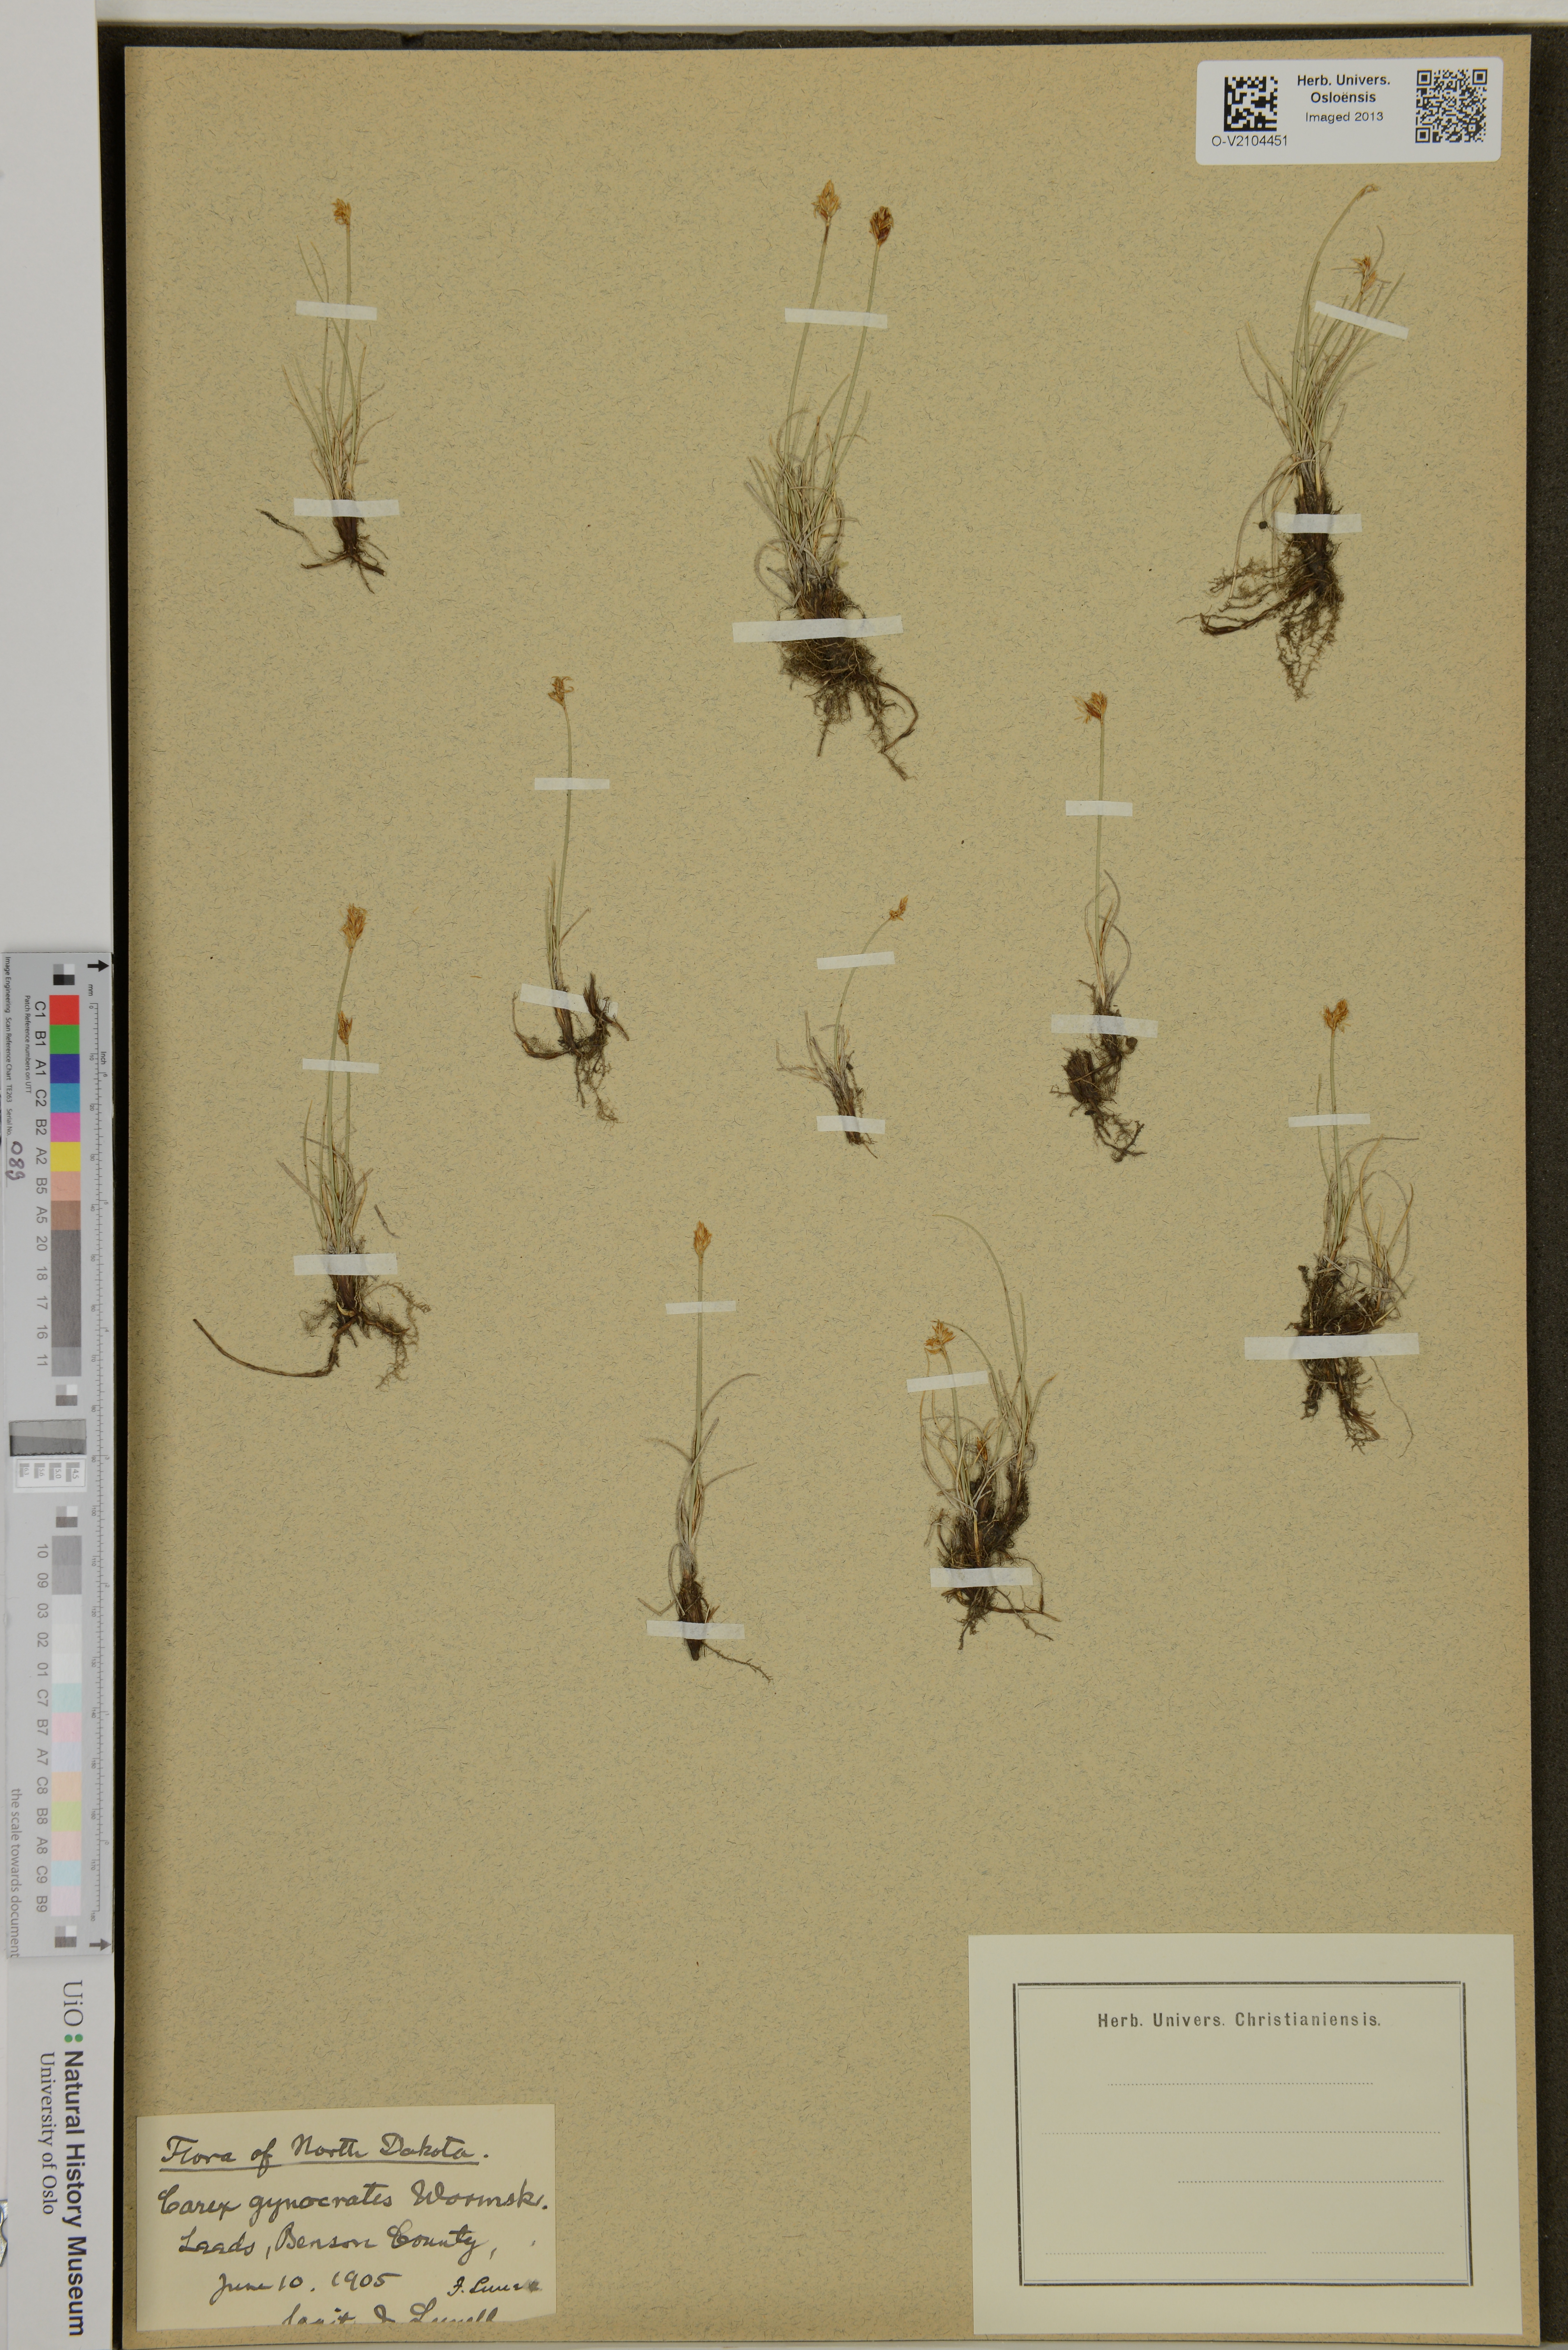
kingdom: Plantae
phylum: Tracheophyta
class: Liliopsida
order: Poales
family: Cyperaceae
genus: Carex
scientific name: Carex gynocrates
